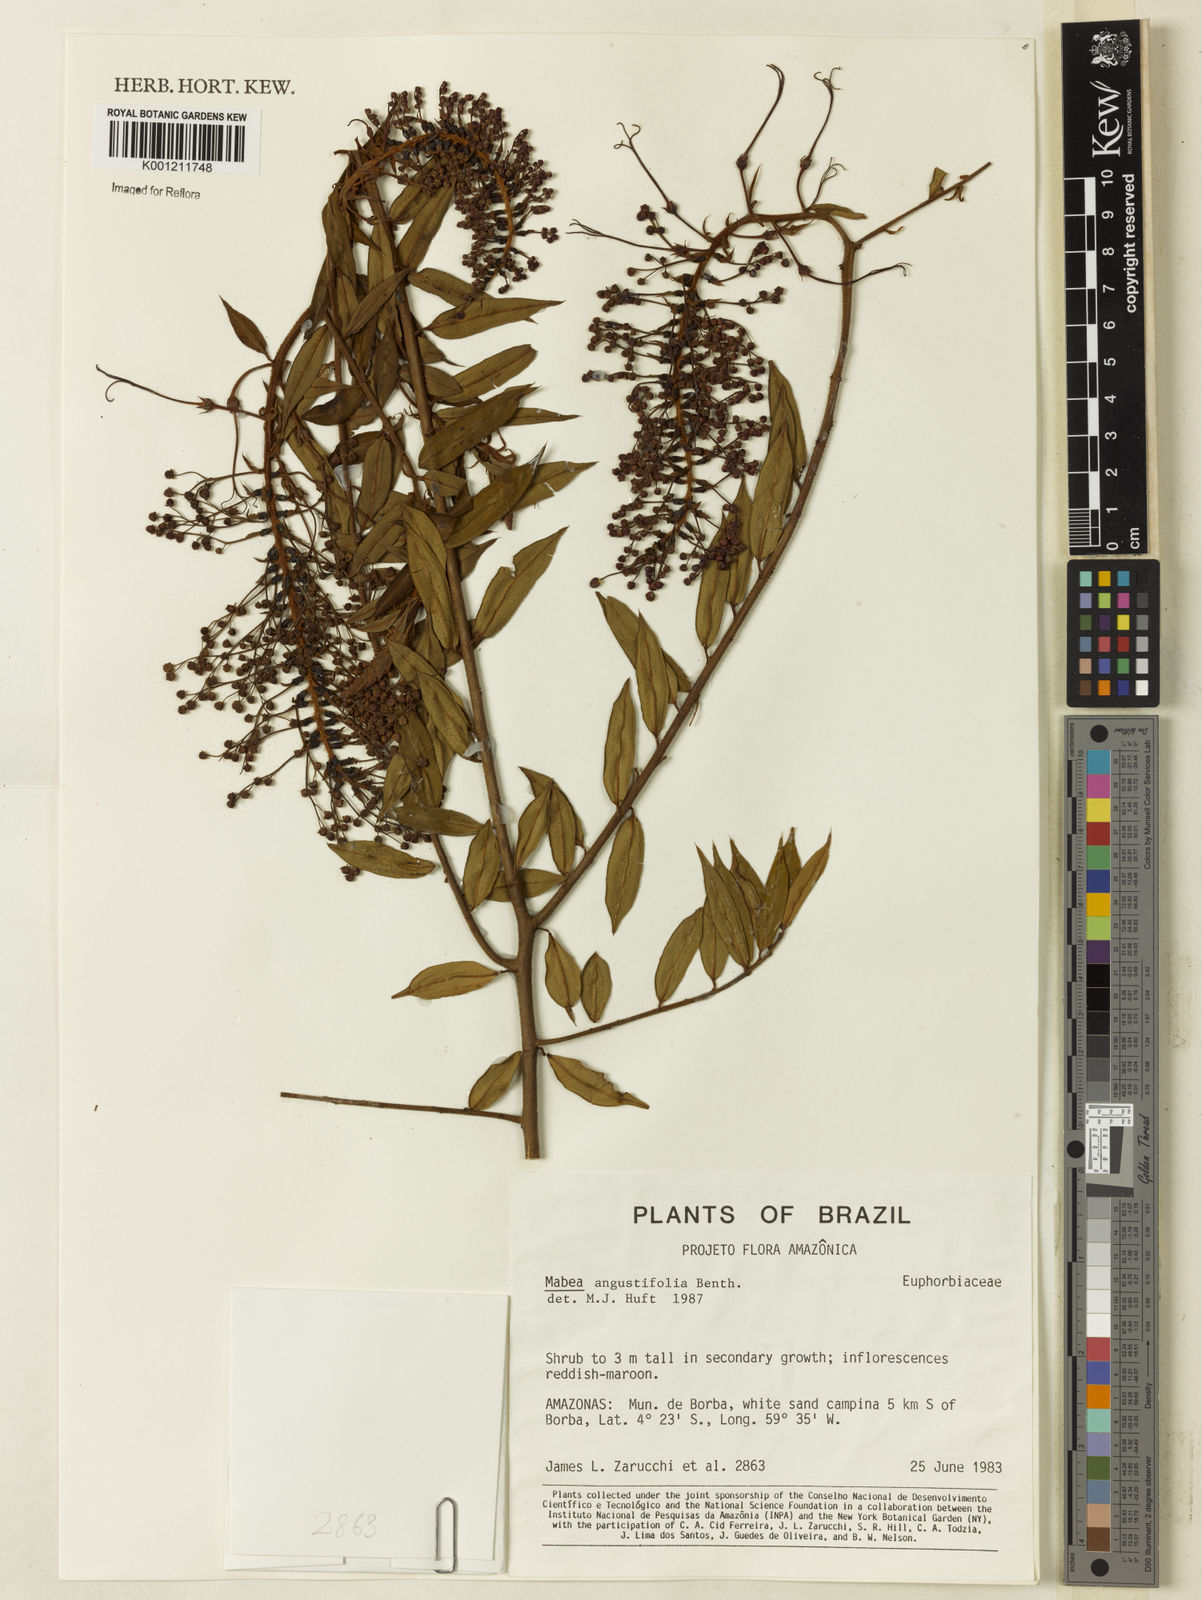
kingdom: Plantae
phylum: Tracheophyta
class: Magnoliopsida
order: Malpighiales
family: Euphorbiaceae
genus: Mabea
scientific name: Mabea angustifolia
